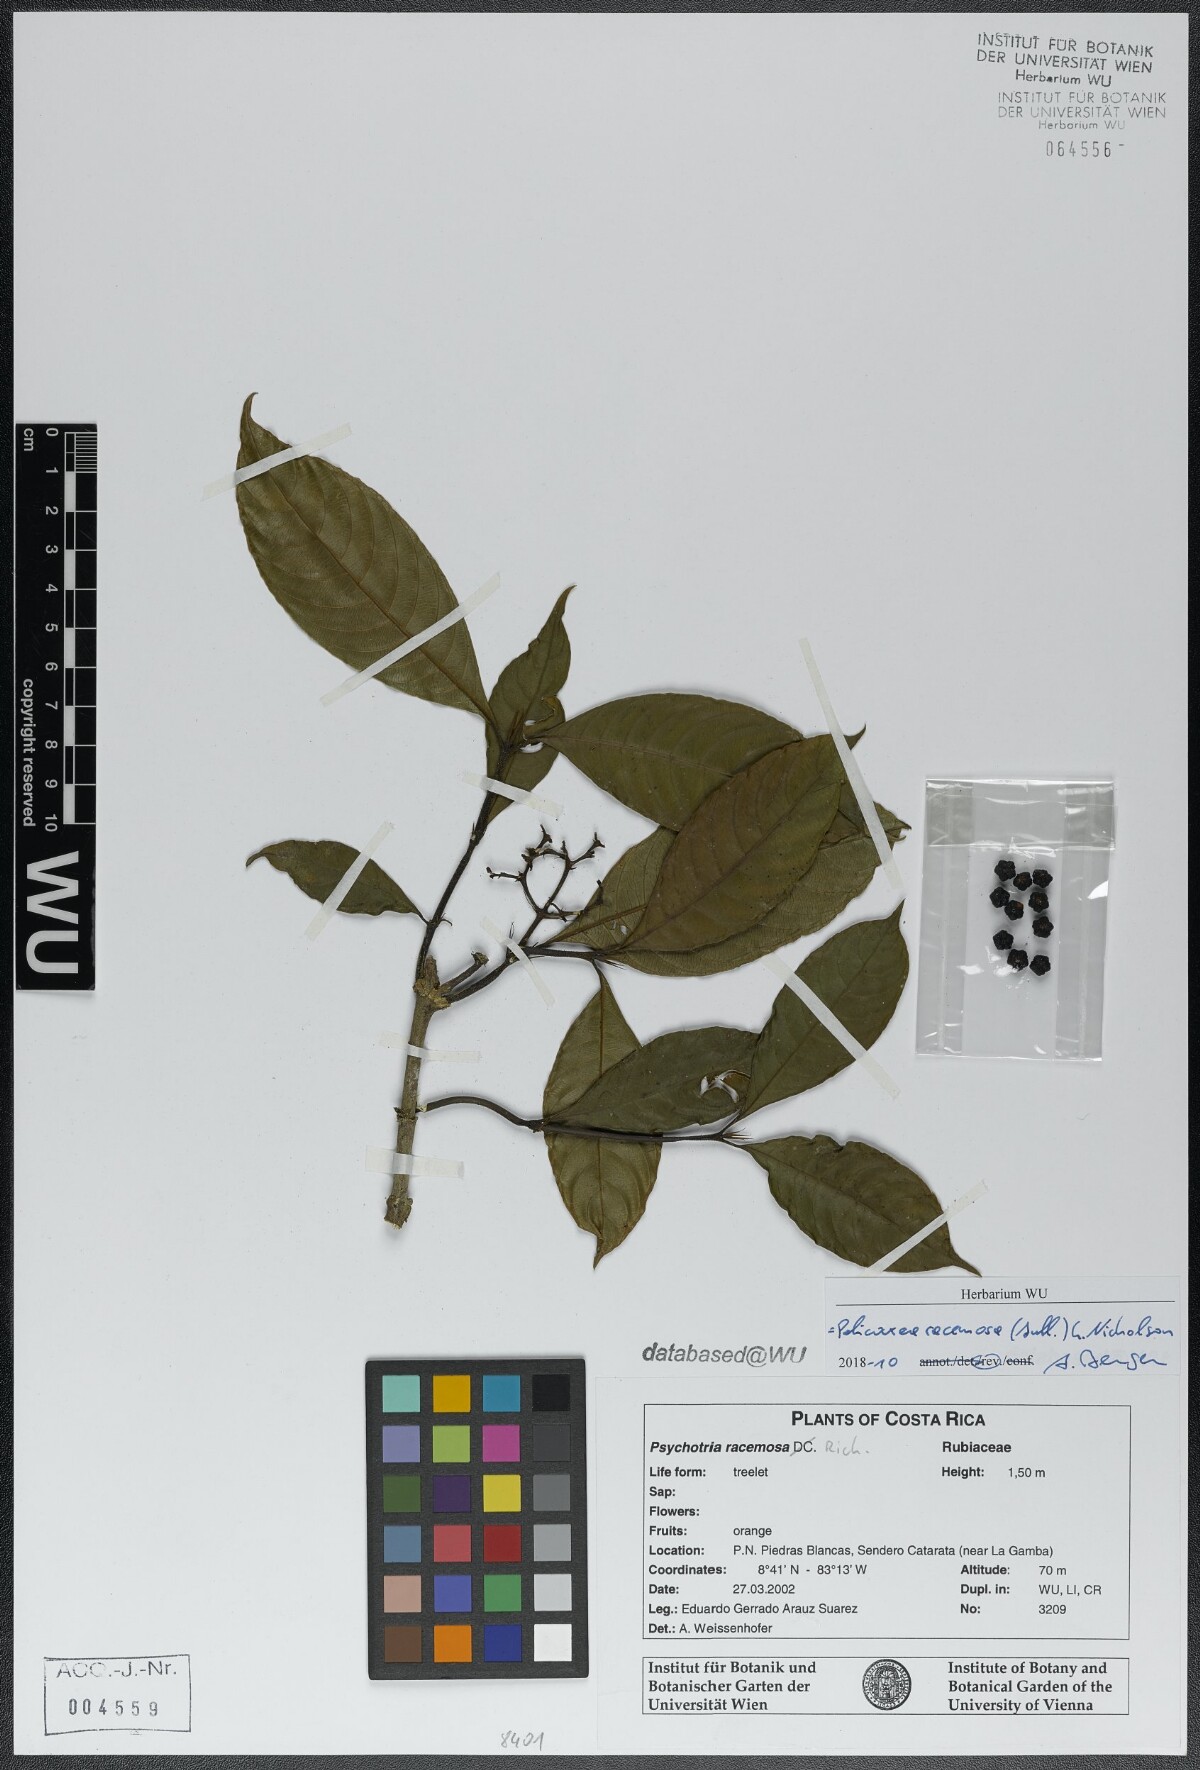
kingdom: Plantae
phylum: Tracheophyta
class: Magnoliopsida
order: Gentianales
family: Rubiaceae
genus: Palicourea
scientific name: Palicourea racemosa
